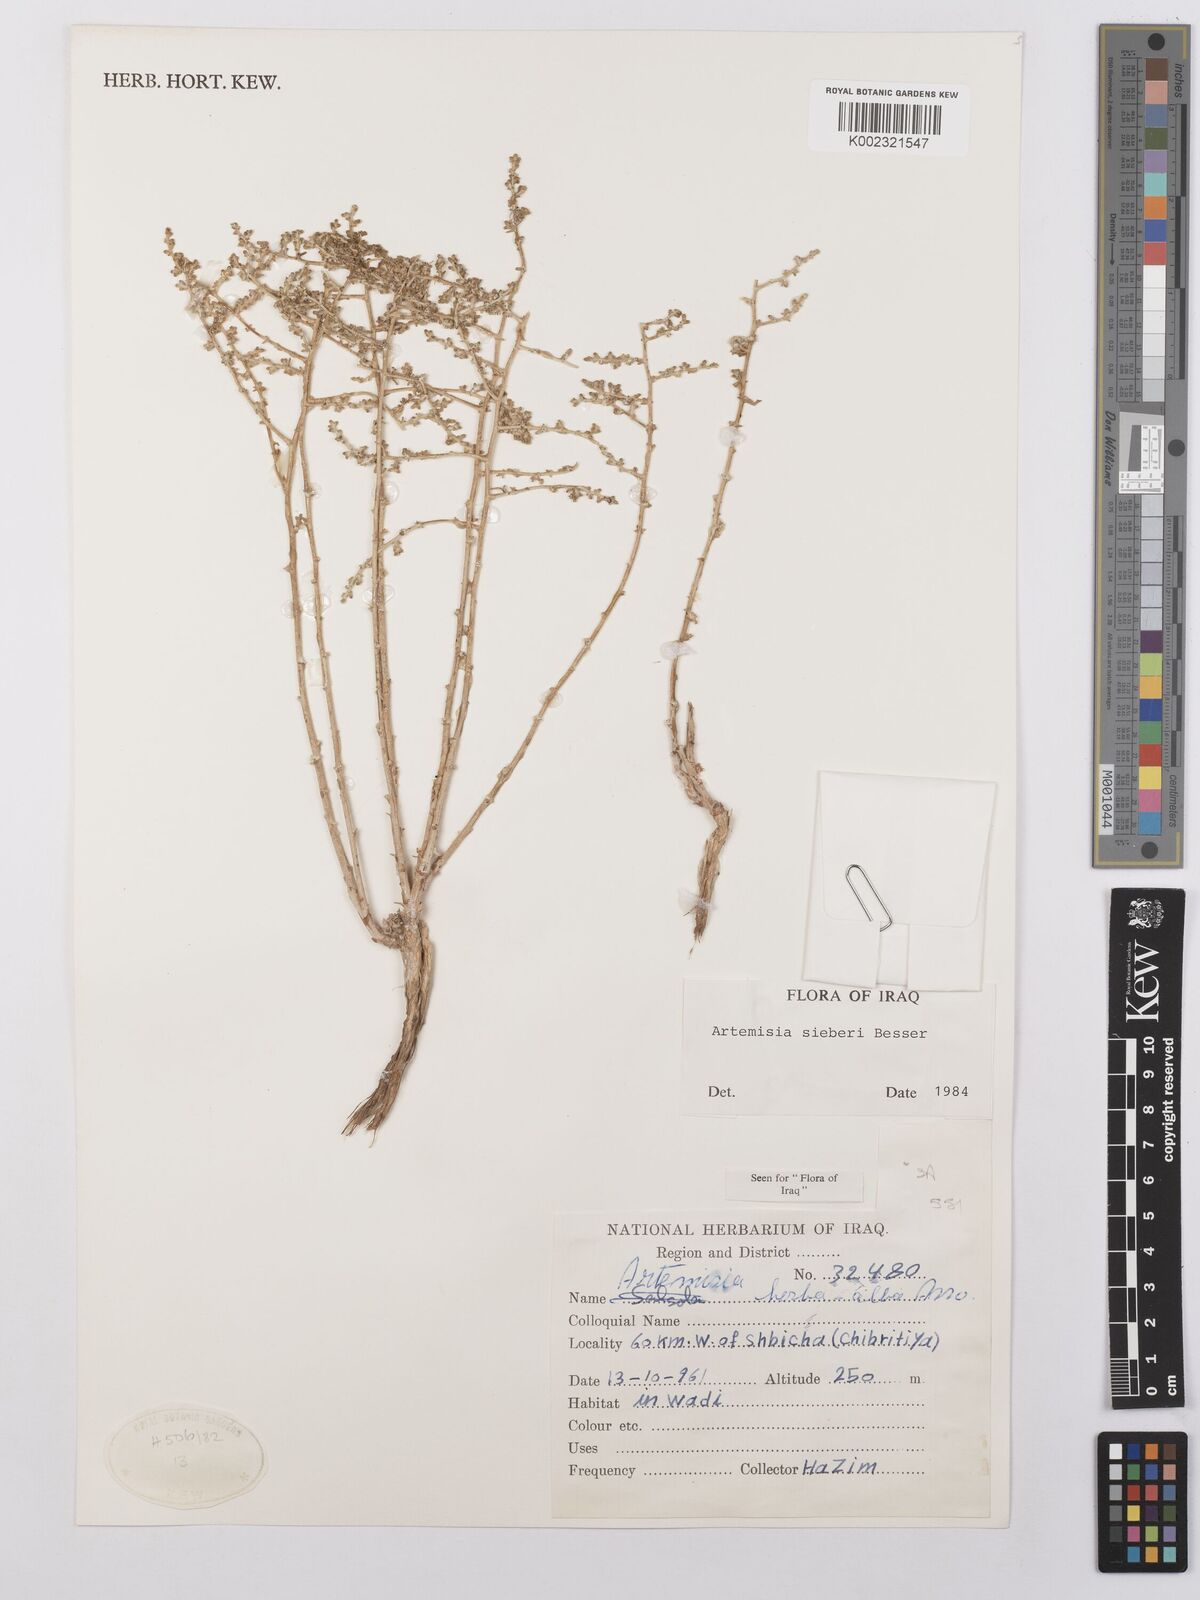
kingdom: Plantae
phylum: Tracheophyta
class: Magnoliopsida
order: Asterales
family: Asteraceae
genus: Artemisia
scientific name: Artemisia sieberi
